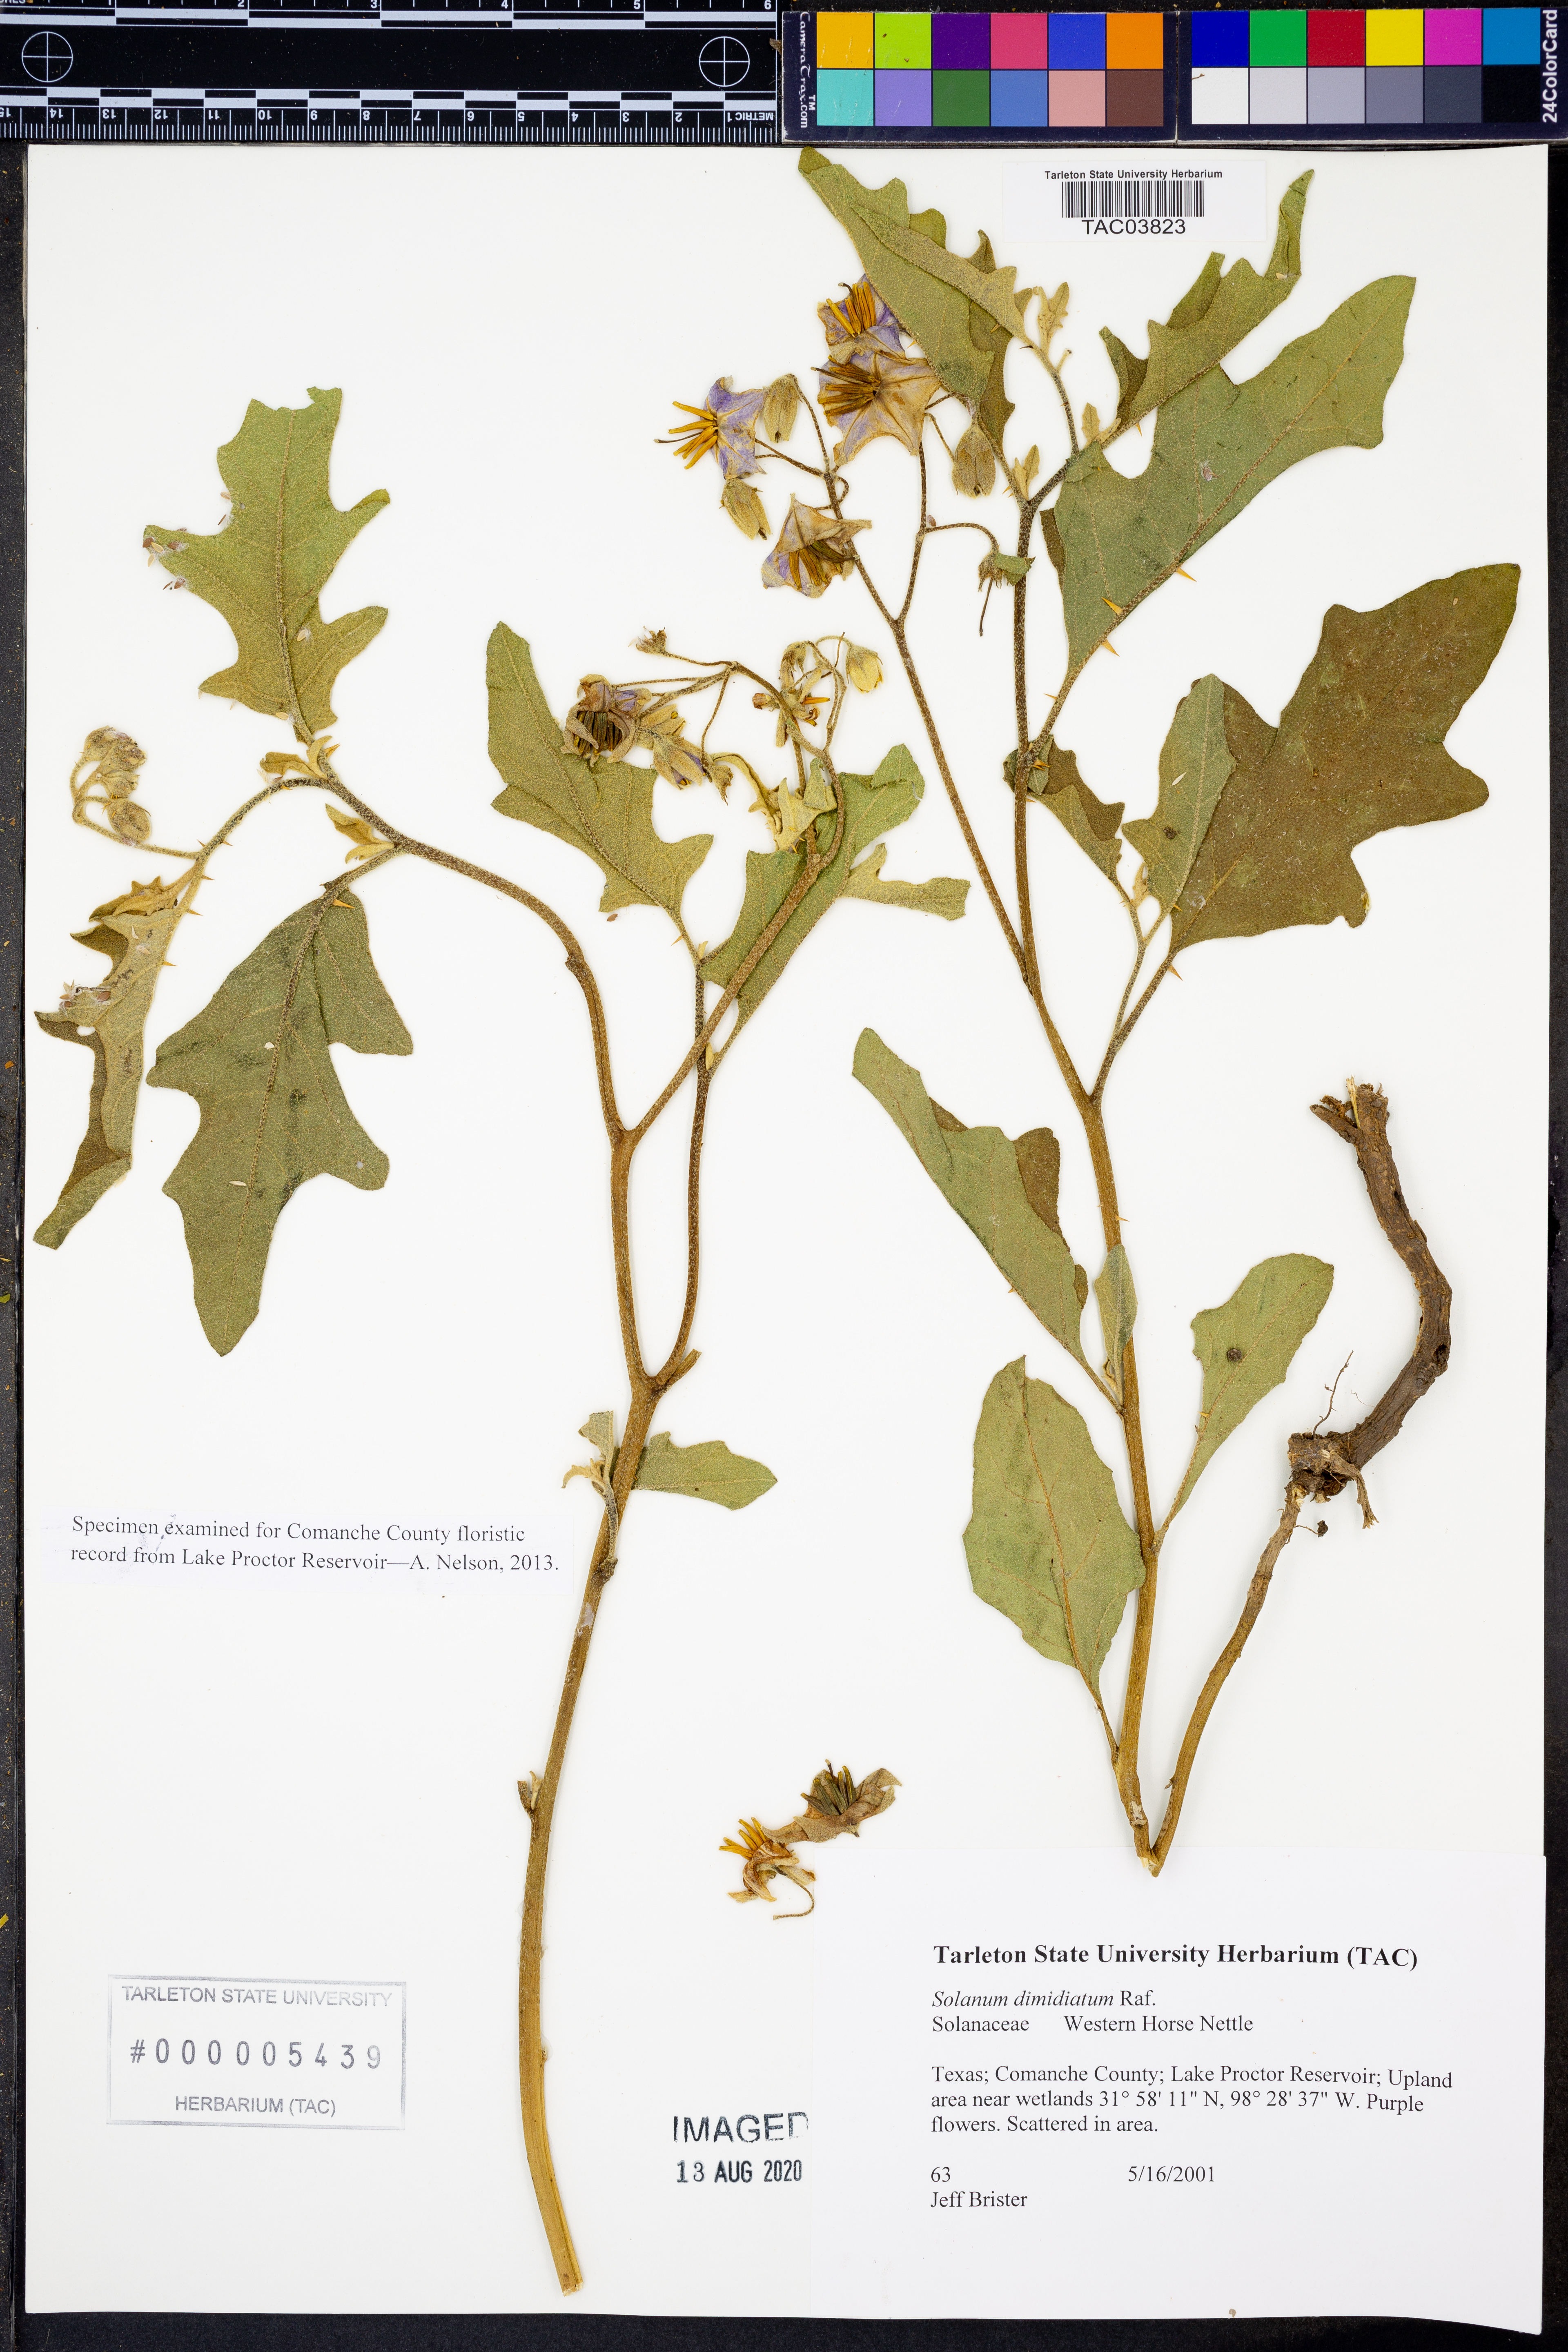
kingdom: Plantae
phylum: Tracheophyta
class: Magnoliopsida
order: Solanales
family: Solanaceae
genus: Solanum
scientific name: Solanum dimidiatum
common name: Carolina horse-nettle
